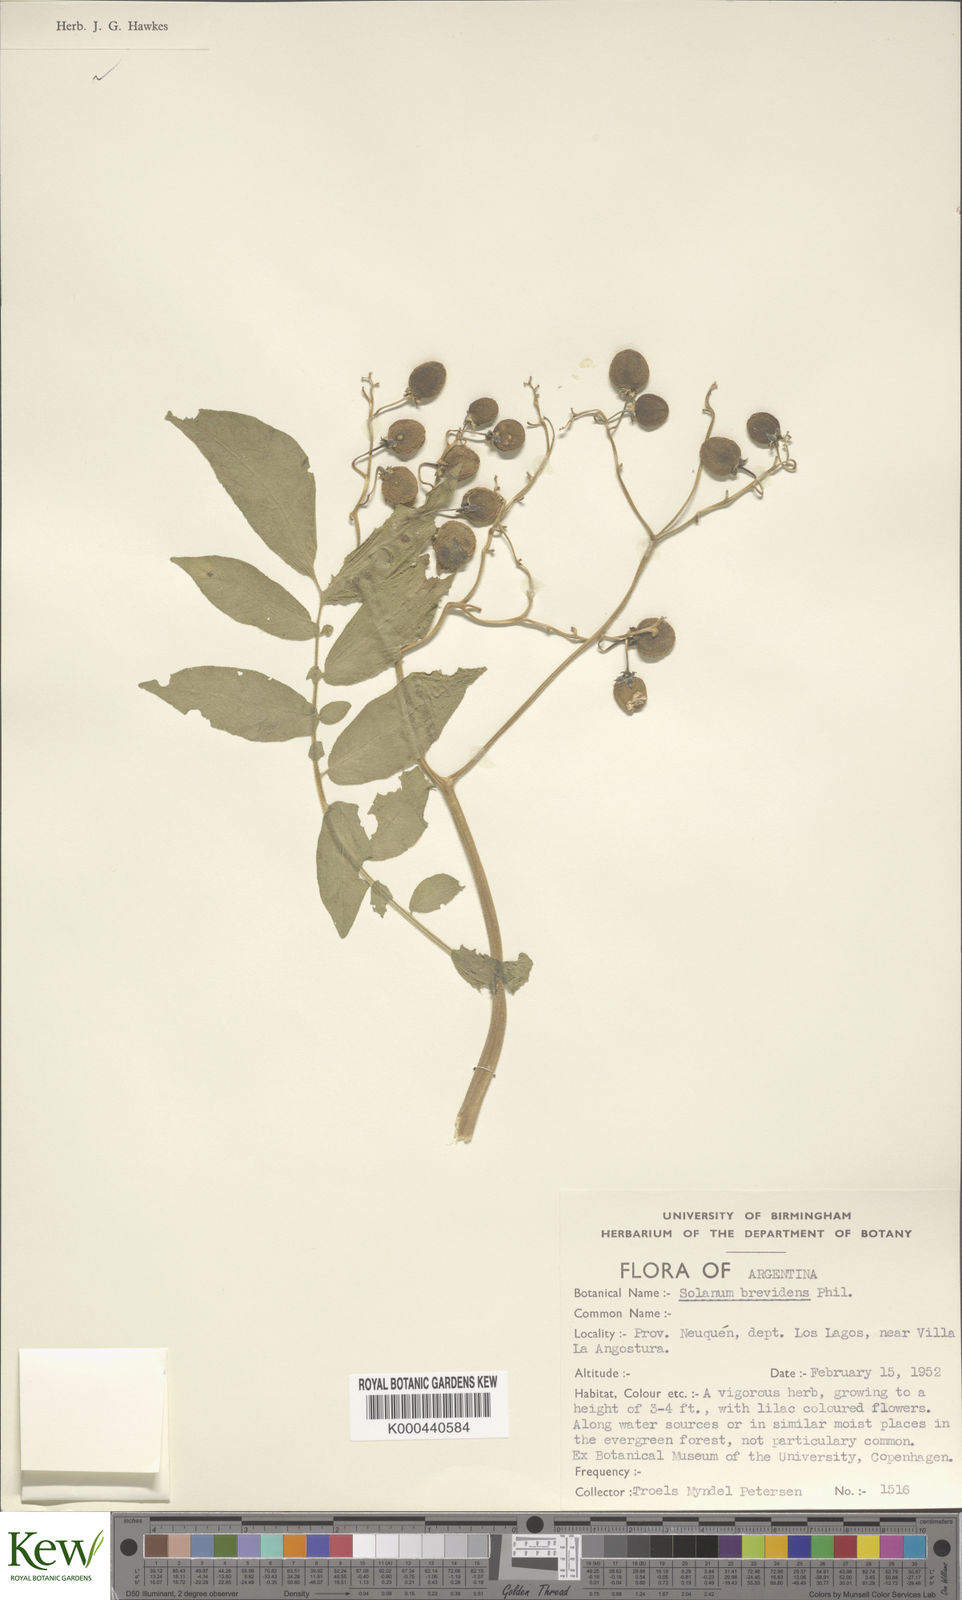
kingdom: Plantae
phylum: Tracheophyta
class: Magnoliopsida
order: Solanales
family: Solanaceae
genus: Solanum
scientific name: Solanum palustre
